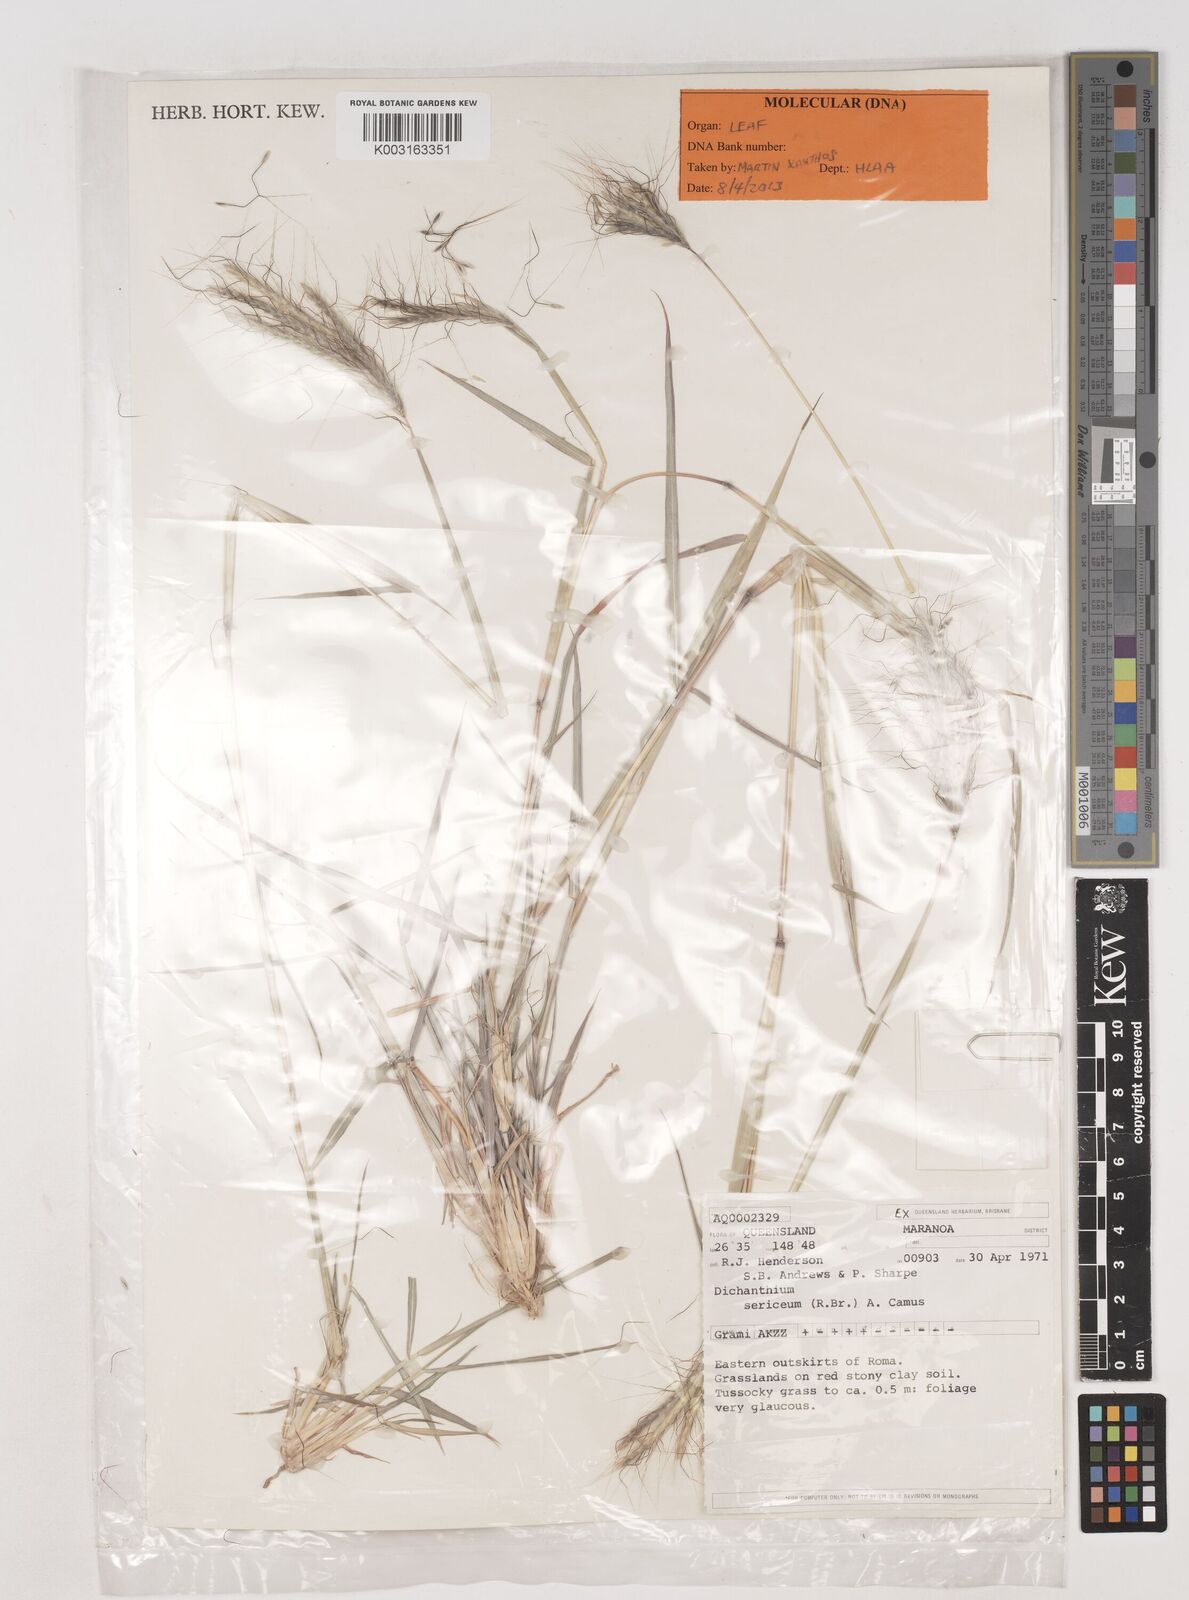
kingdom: Plantae
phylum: Tracheophyta
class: Liliopsida
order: Poales
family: Poaceae
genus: Dichanthium
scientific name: Dichanthium sericeum
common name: Silky bluestem
